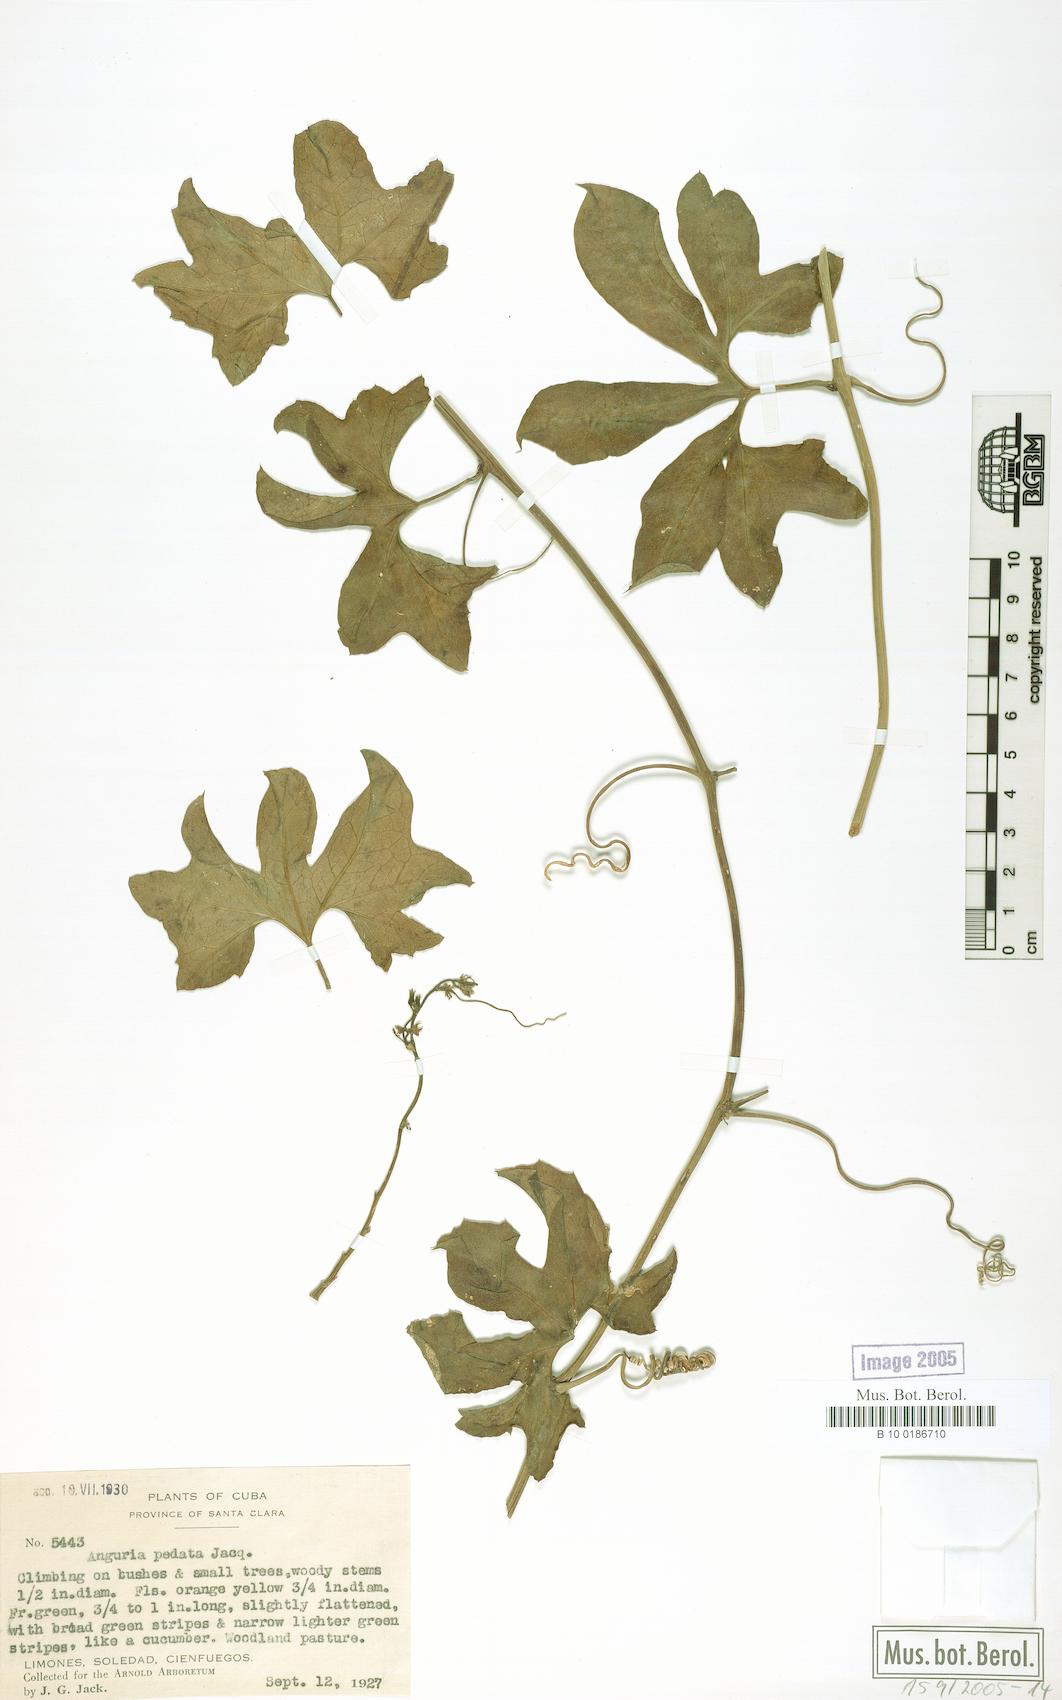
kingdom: Plantae
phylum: Tracheophyta
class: Magnoliopsida
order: Cucurbitales
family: Cucurbitaceae
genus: Gurania
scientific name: Gurania pedata
